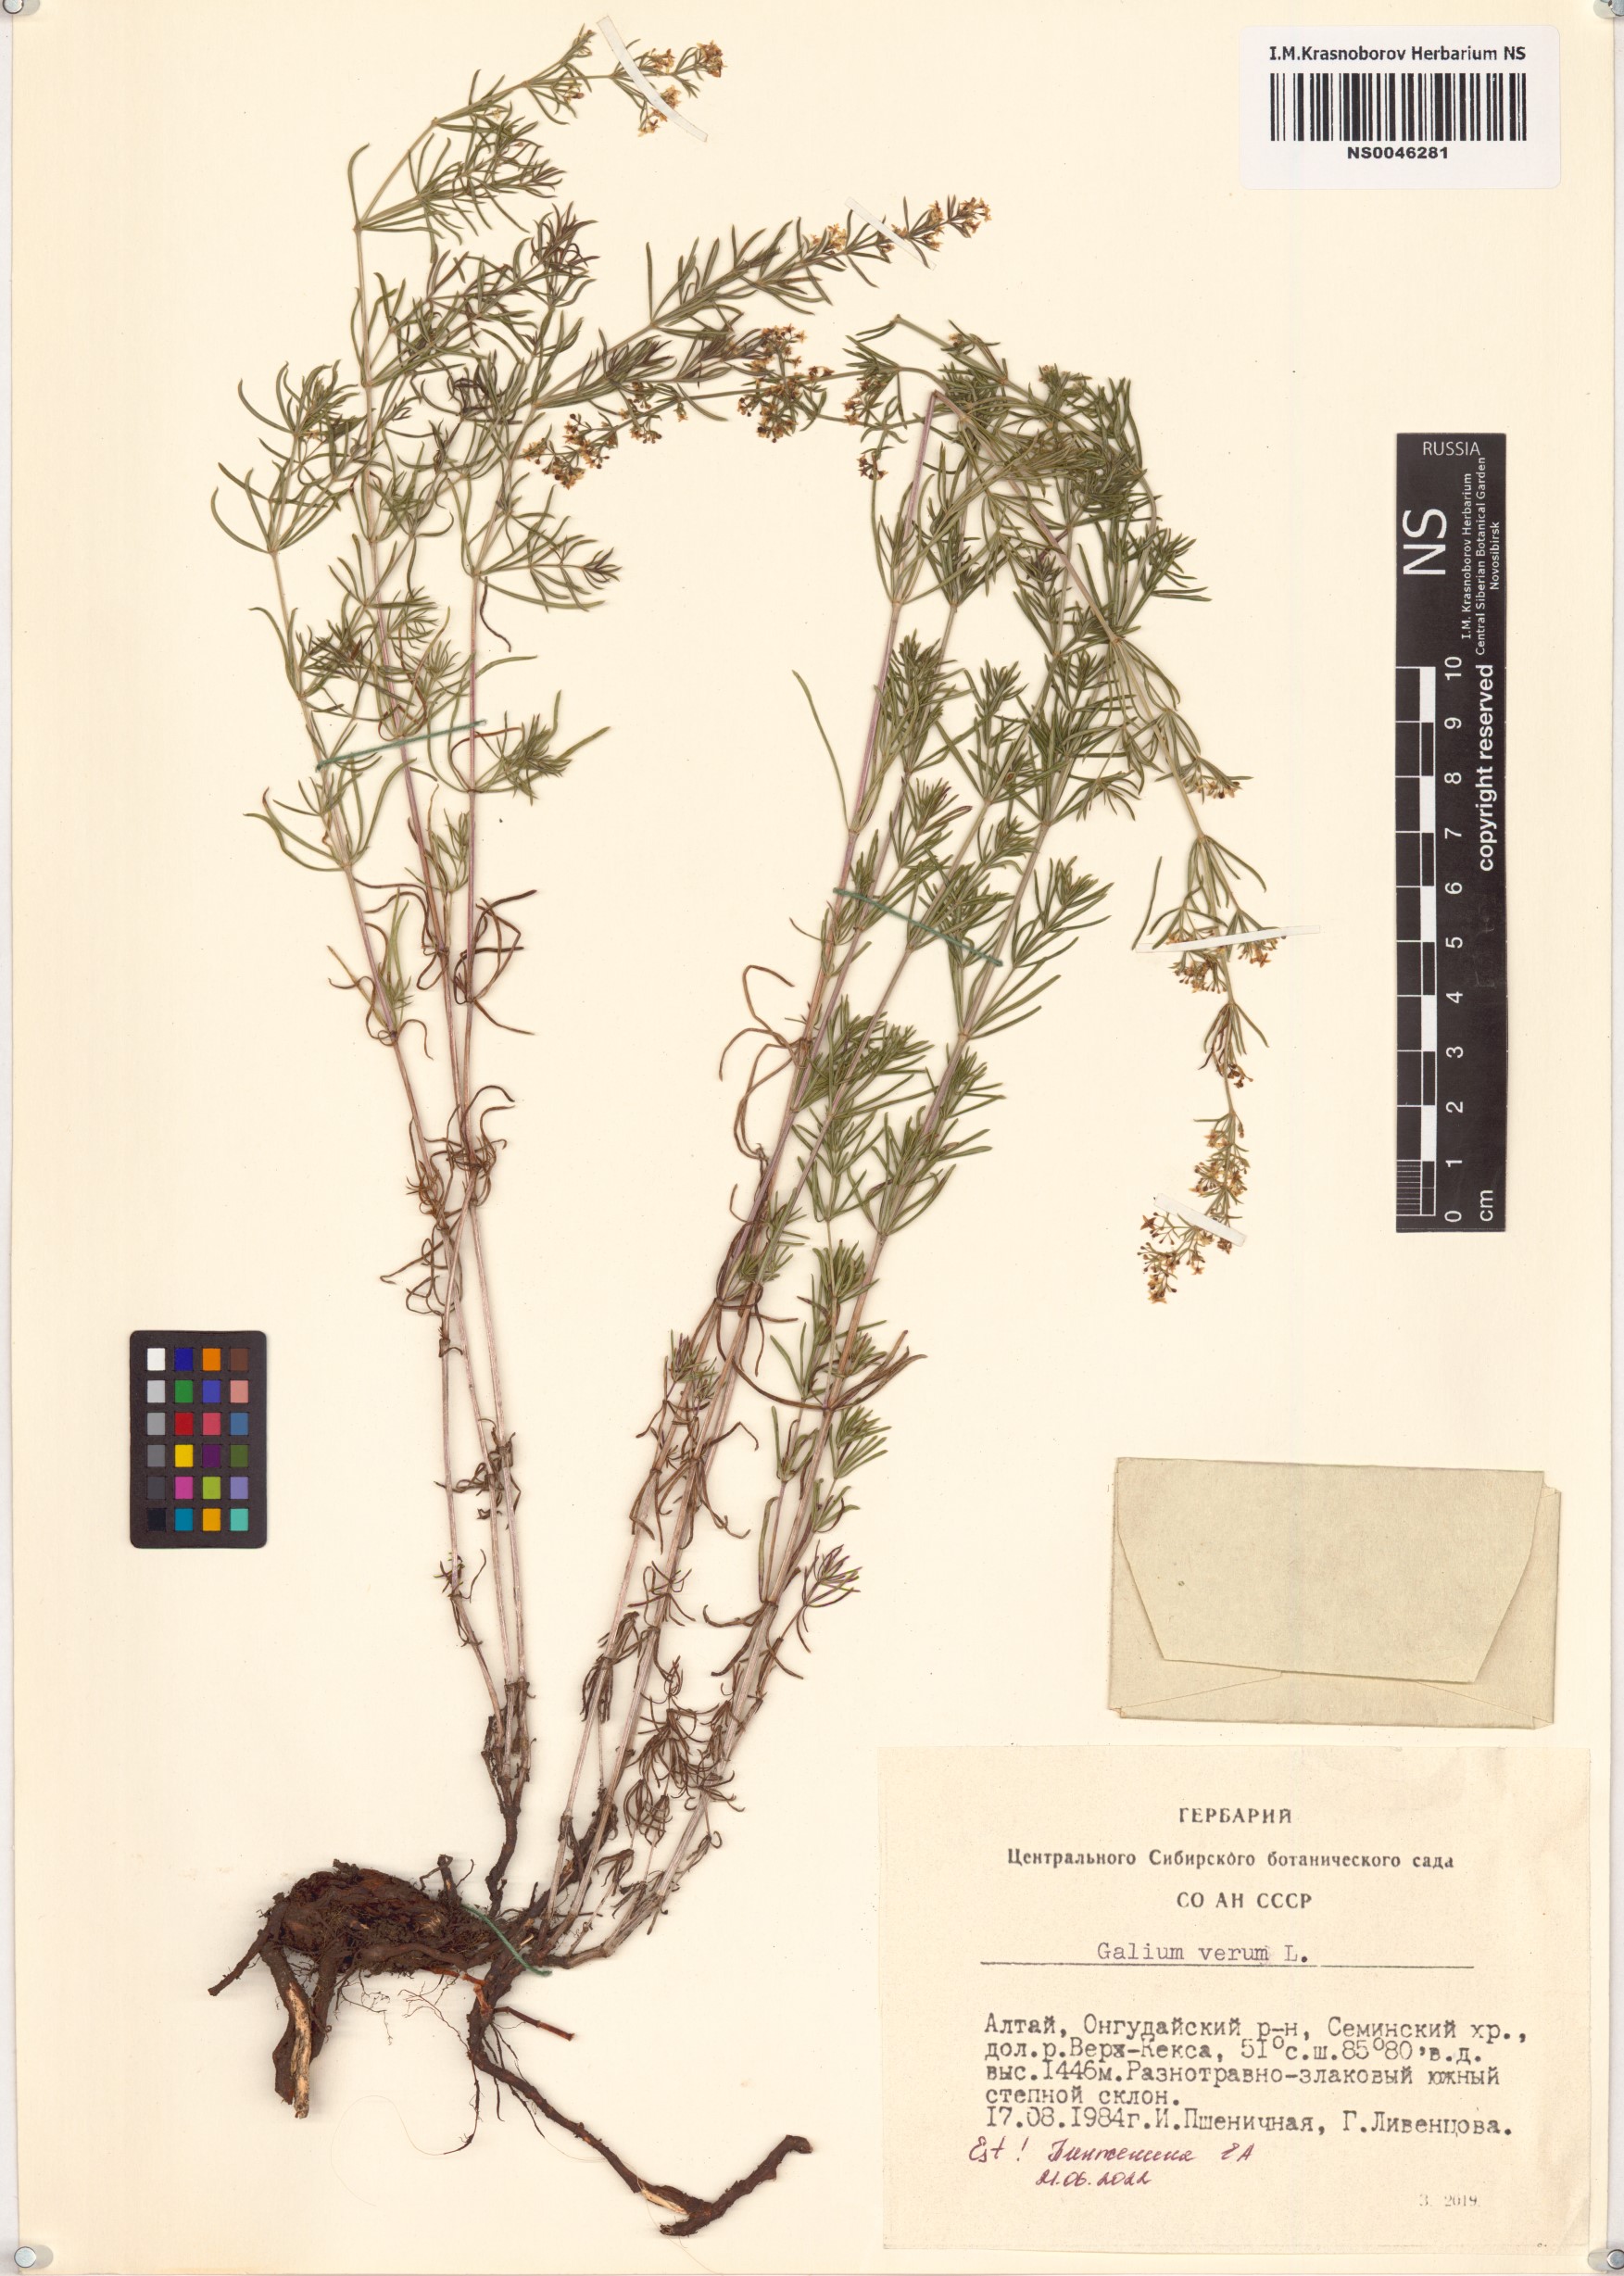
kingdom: Plantae
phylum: Tracheophyta
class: Magnoliopsida
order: Gentianales
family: Rubiaceae
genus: Galium
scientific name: Galium verum
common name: Lady's bedstraw
